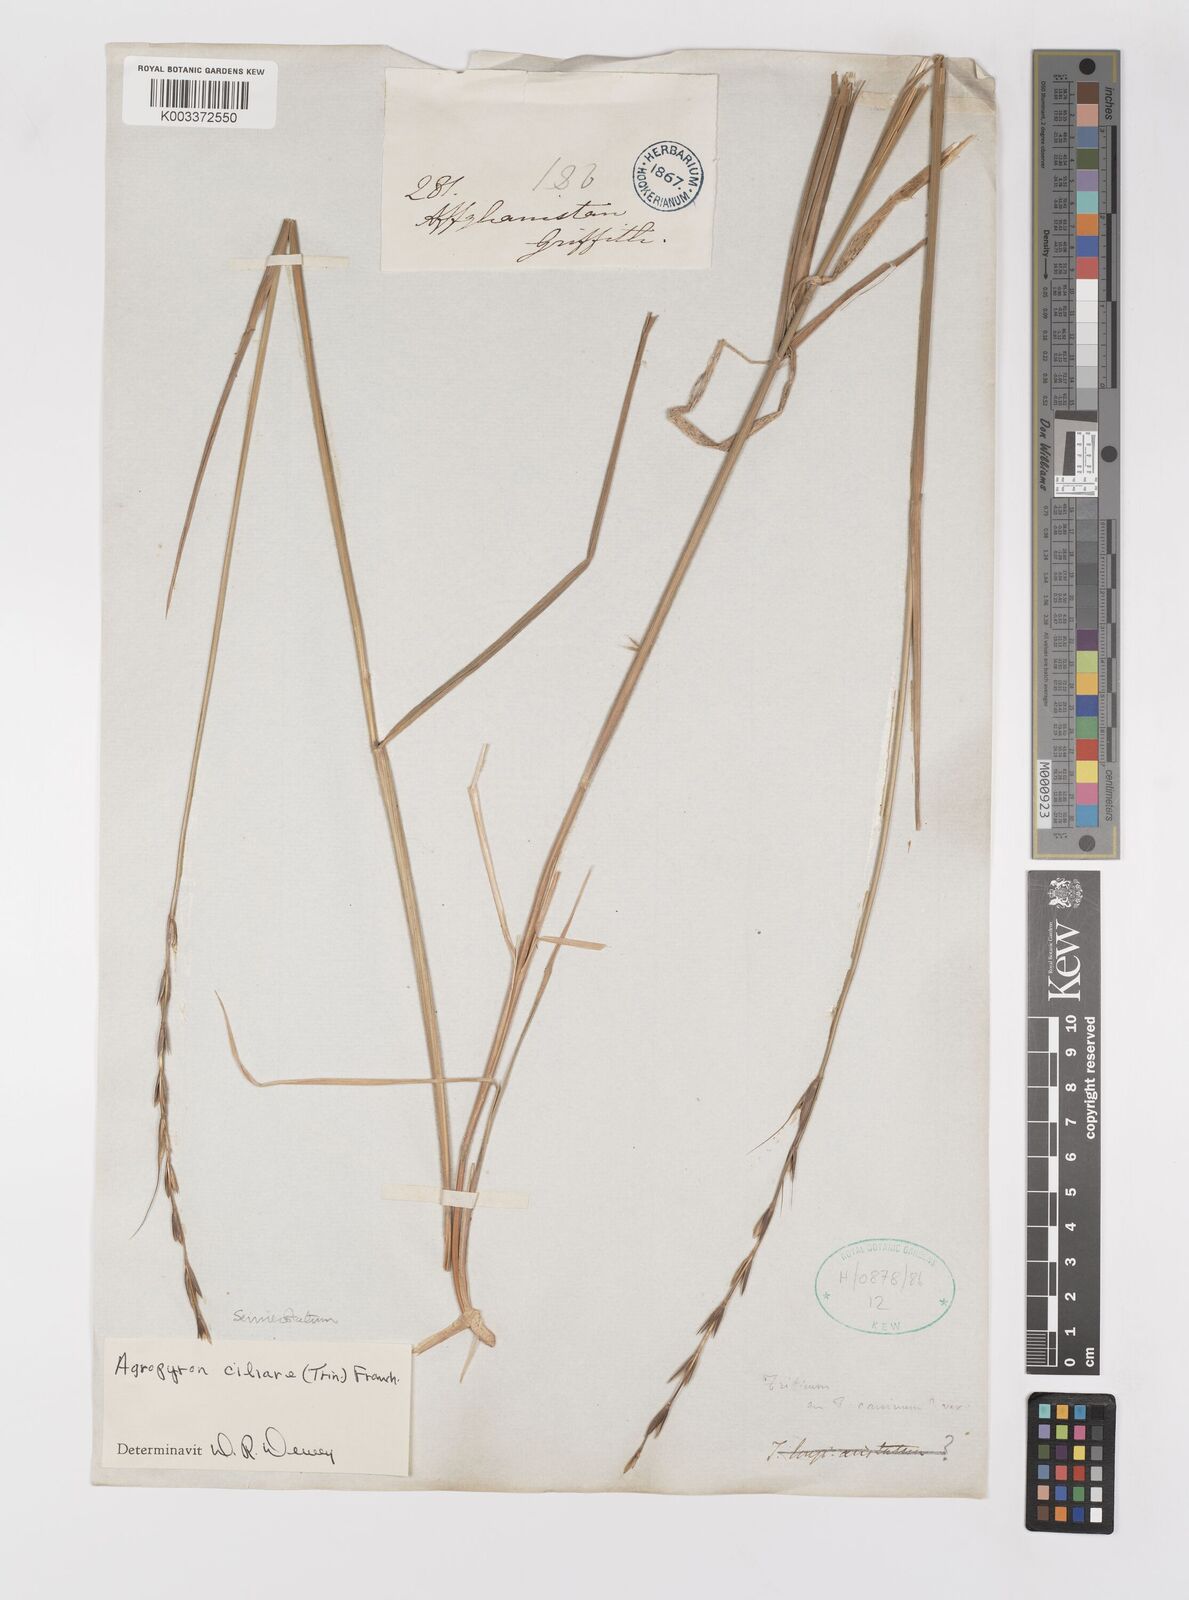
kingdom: Plantae
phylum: Tracheophyta
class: Liliopsida
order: Poales
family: Poaceae
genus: Elymus
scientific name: Elymus semicostatus
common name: Drooping wildrye
